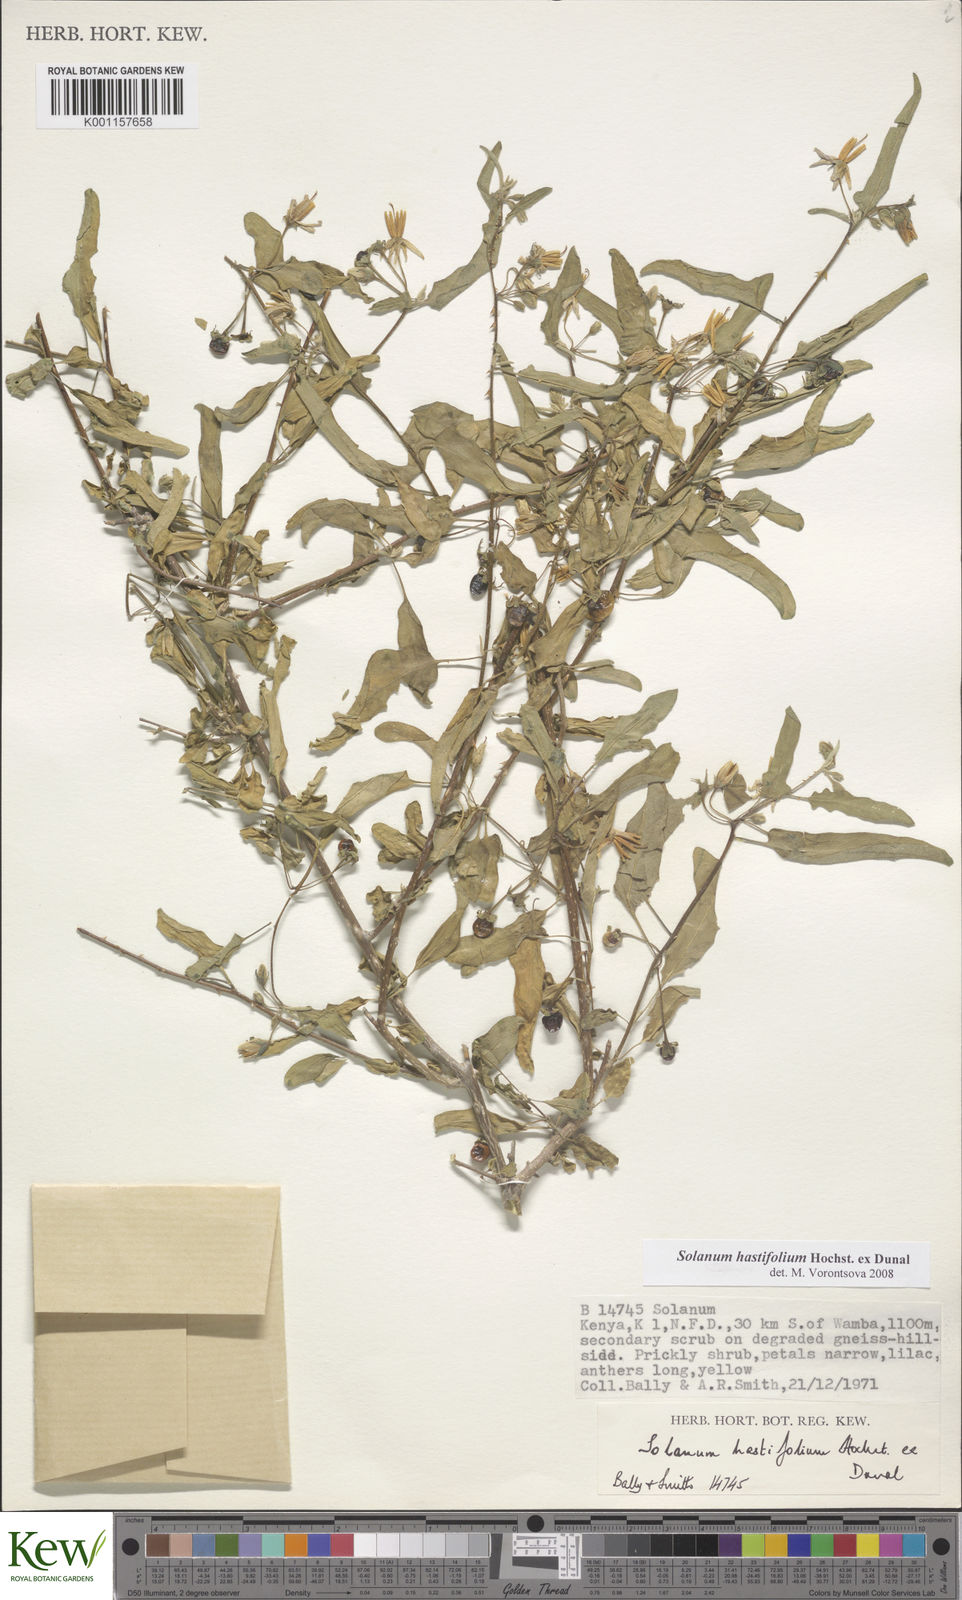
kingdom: Plantae
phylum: Tracheophyta
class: Magnoliopsida
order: Solanales
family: Solanaceae
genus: Solanum
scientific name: Solanum hastifolium
